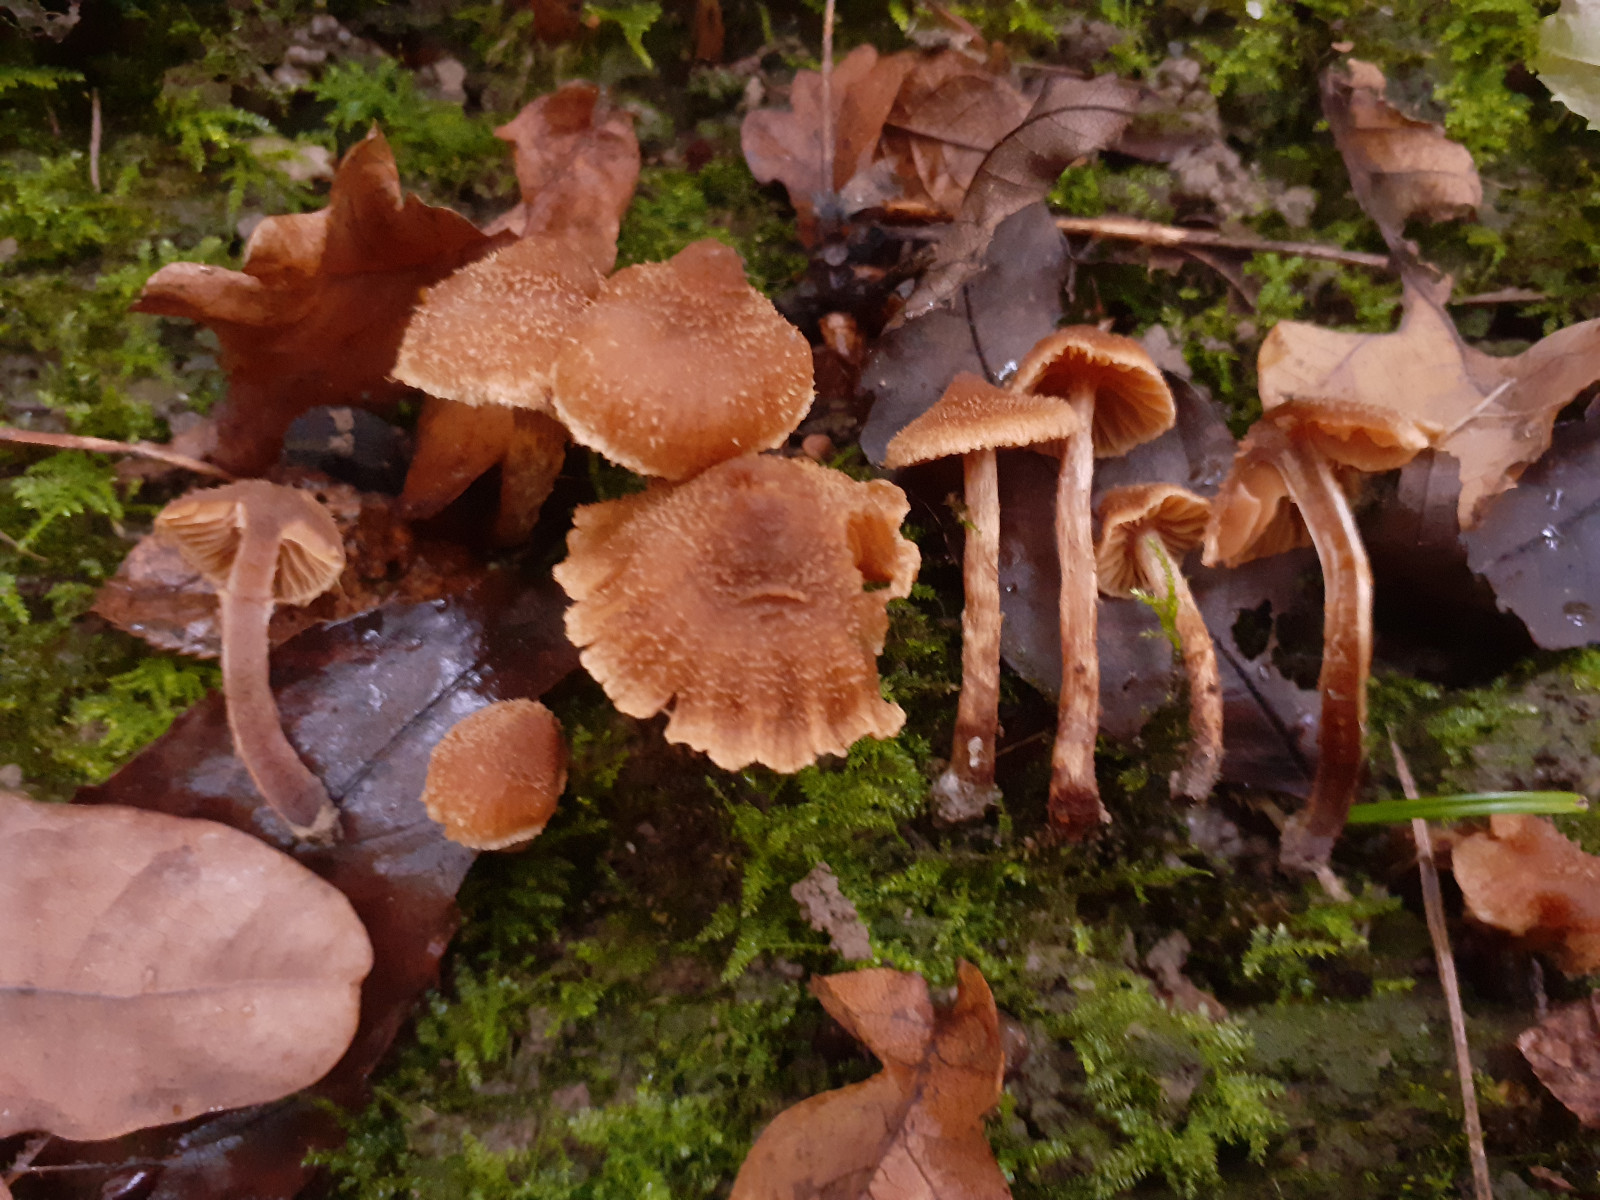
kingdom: Fungi
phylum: Basidiomycota
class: Agaricomycetes
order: Agaricales
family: Cortinariaceae
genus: Cortinarius
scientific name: Cortinarius quercoconicus
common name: agernskål-slørhat
